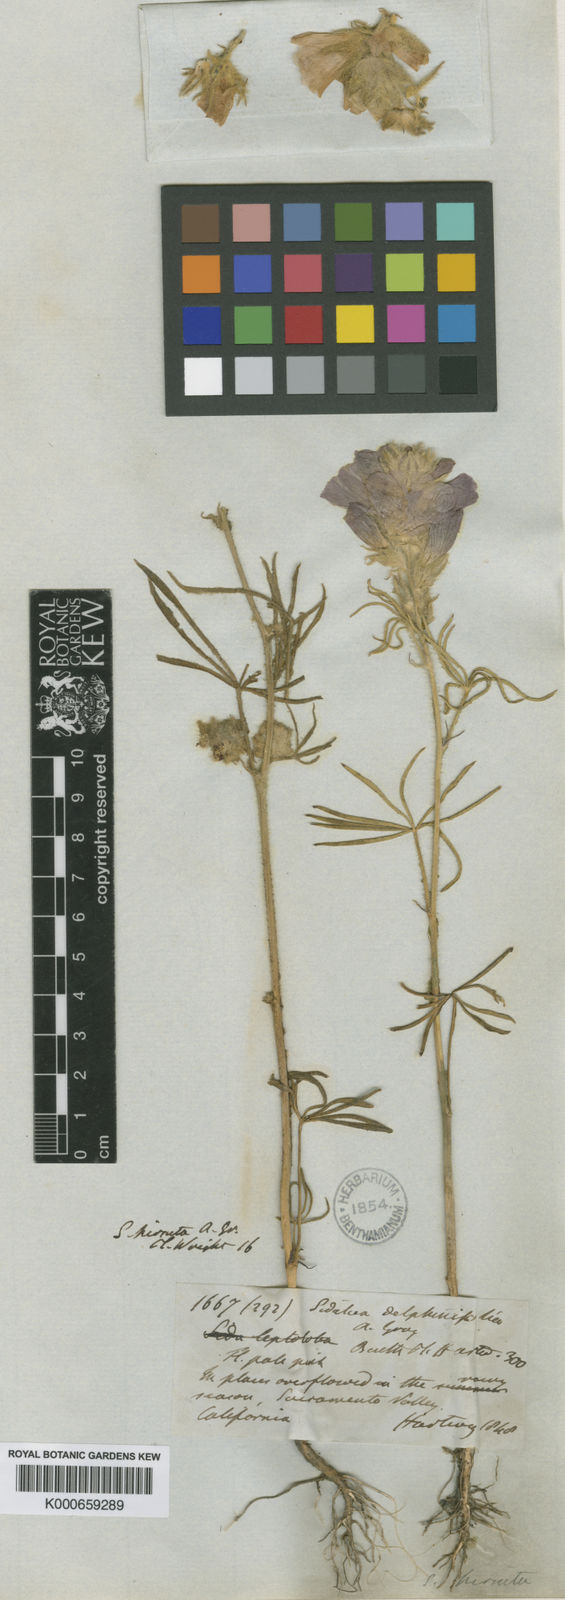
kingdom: Plantae
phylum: Tracheophyta
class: Magnoliopsida
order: Malvales
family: Malvaceae
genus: Sidalcea
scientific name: Sidalcea hirsuta
